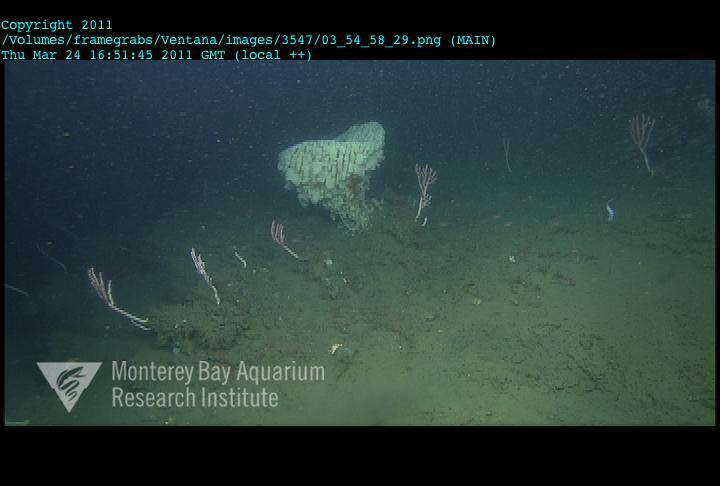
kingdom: Animalia
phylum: Porifera
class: Hexactinellida
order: Sceptrulophora
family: Aphrocallistidae
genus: Heterochone
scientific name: Heterochone
